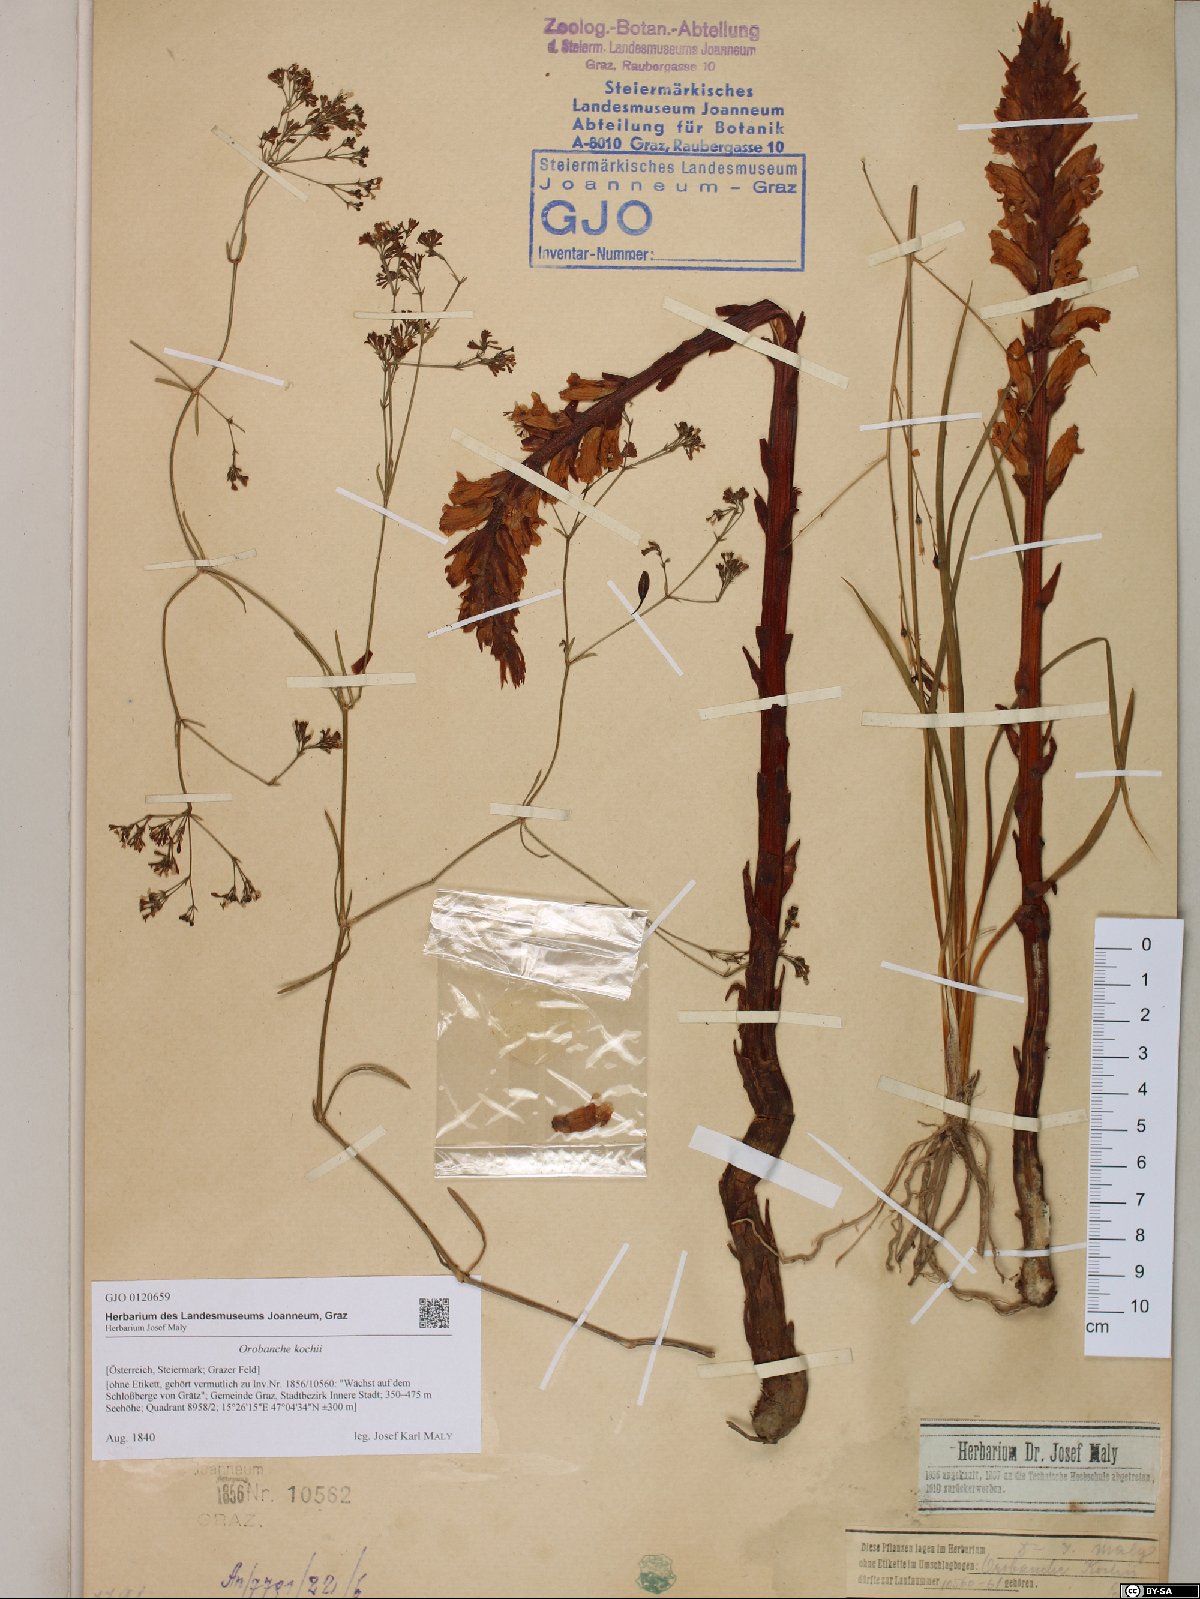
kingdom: Plantae
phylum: Tracheophyta
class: Magnoliopsida
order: Lamiales
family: Orobanchaceae
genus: Orobanche
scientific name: Orobanche centaurina
